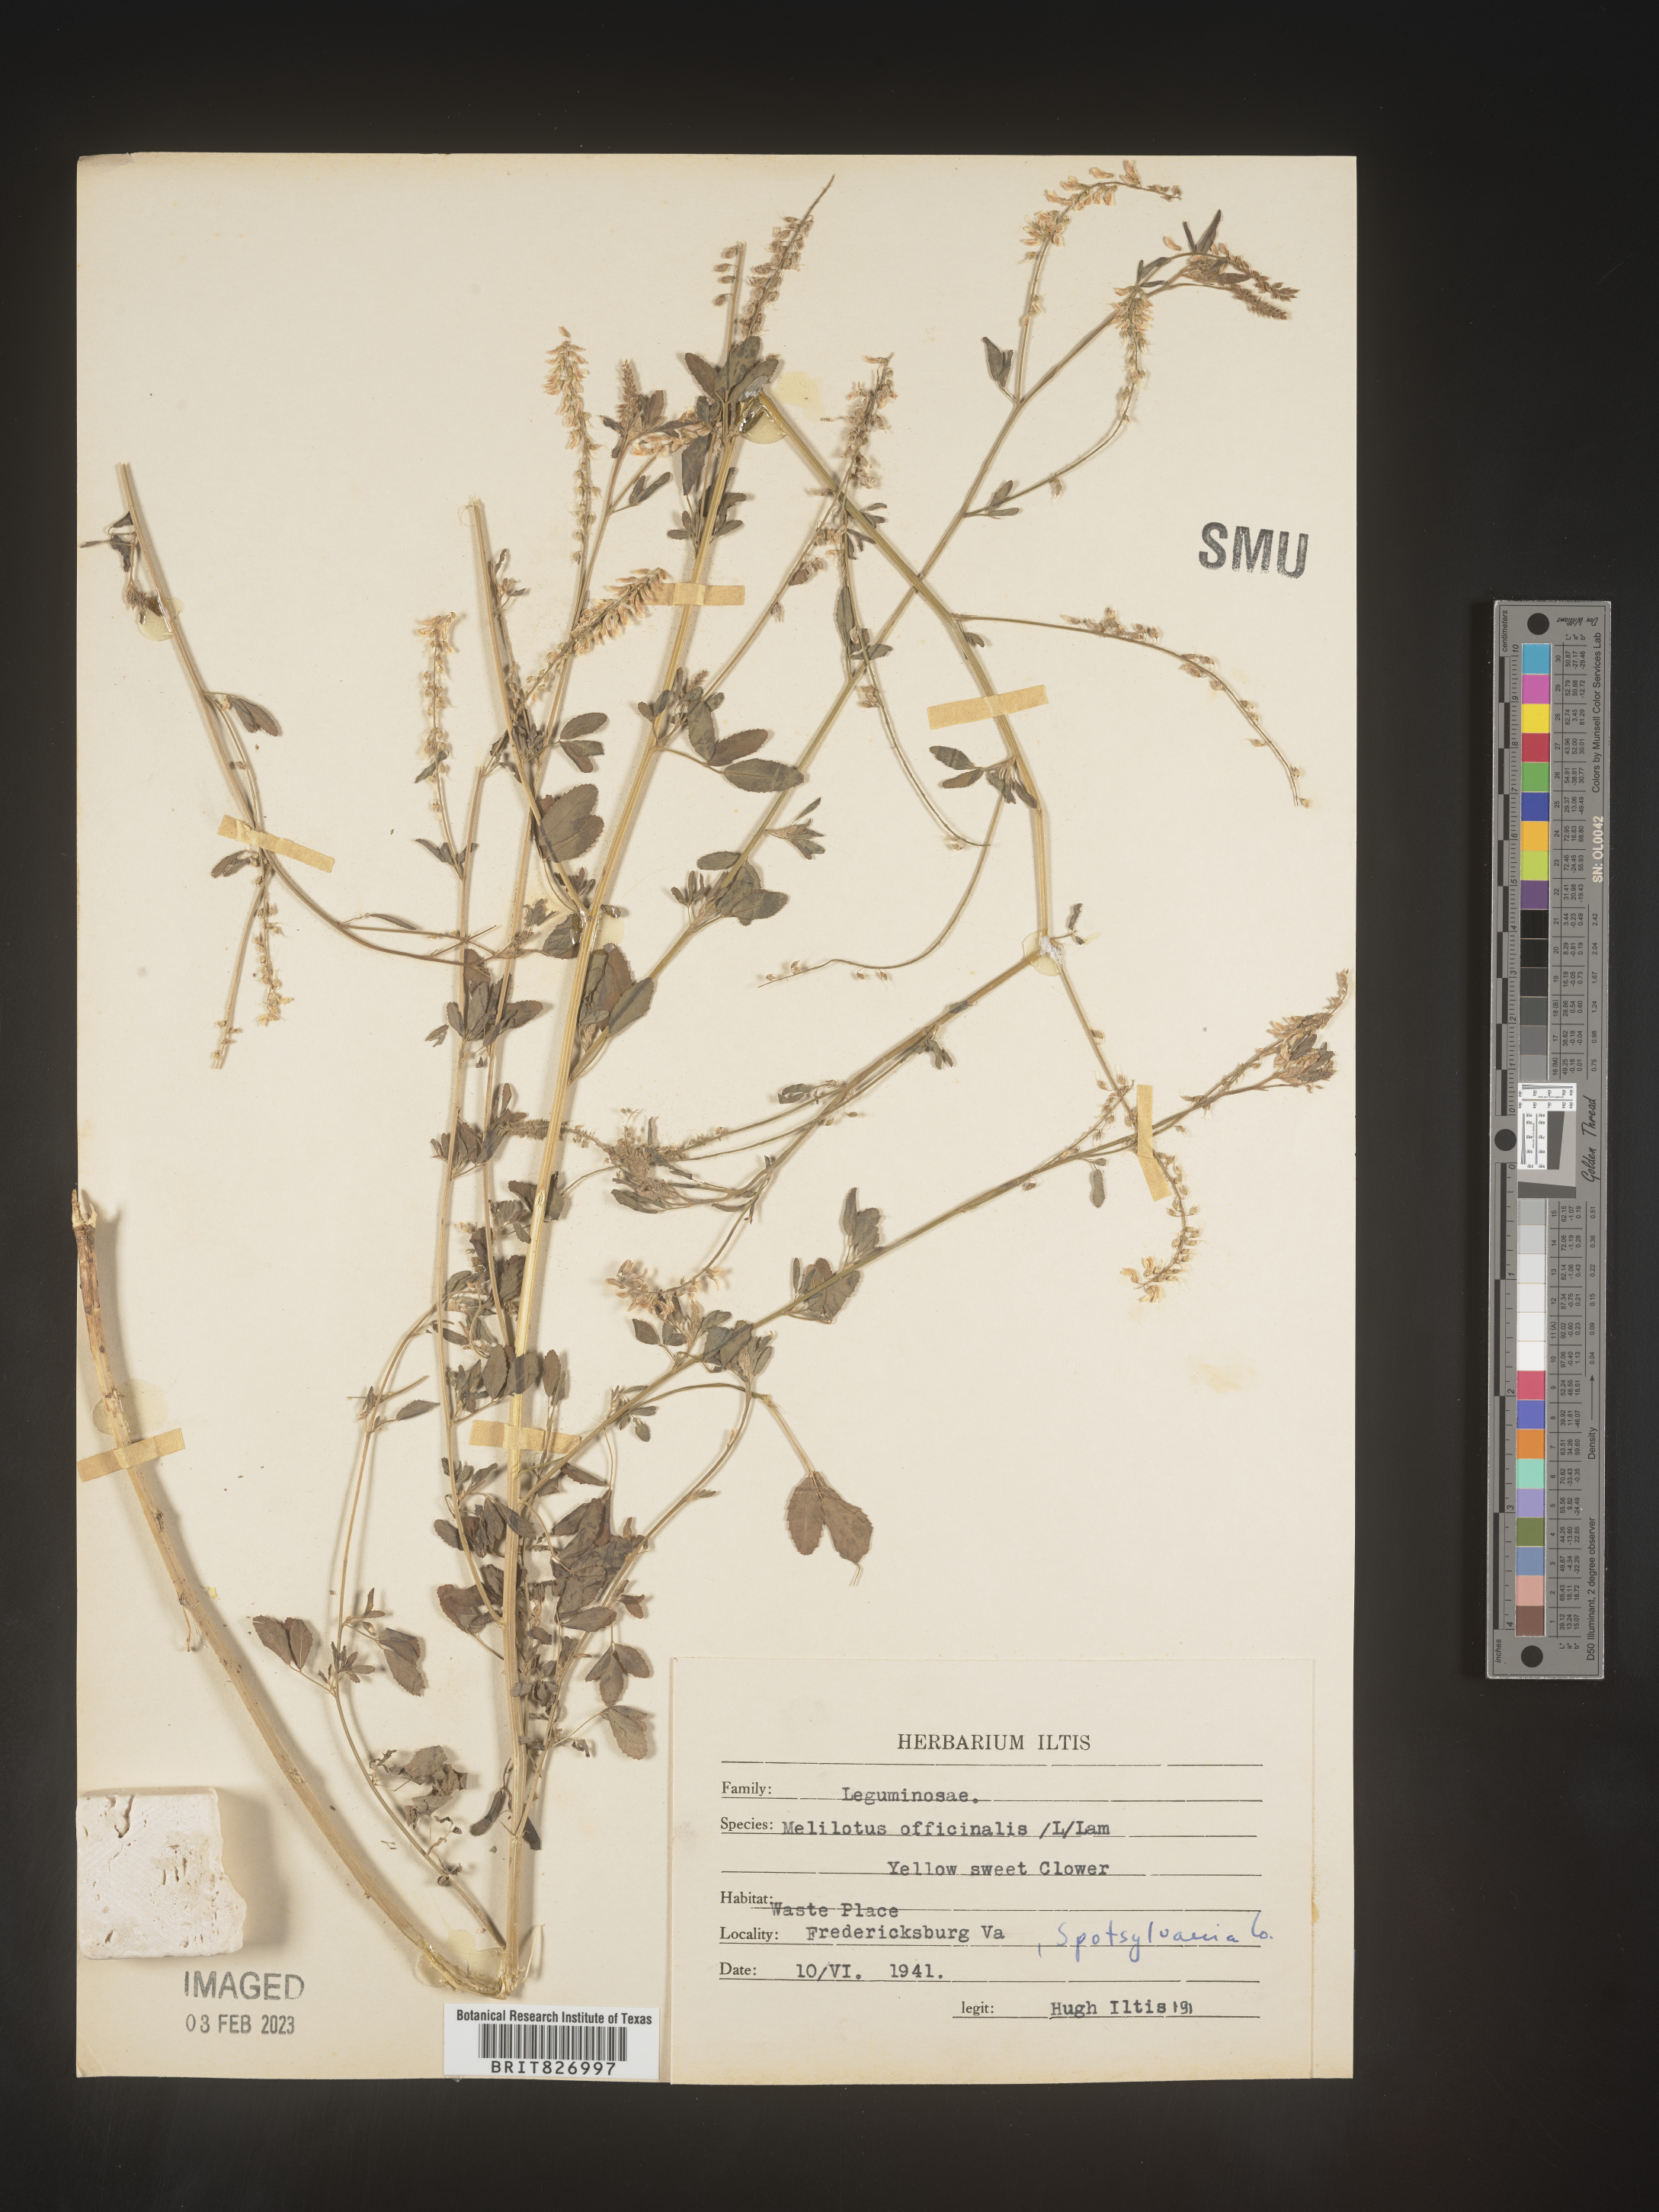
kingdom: Plantae
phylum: Tracheophyta
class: Magnoliopsida
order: Fabales
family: Fabaceae
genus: Melilotus
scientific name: Melilotus officinalis
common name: Sweetclover
